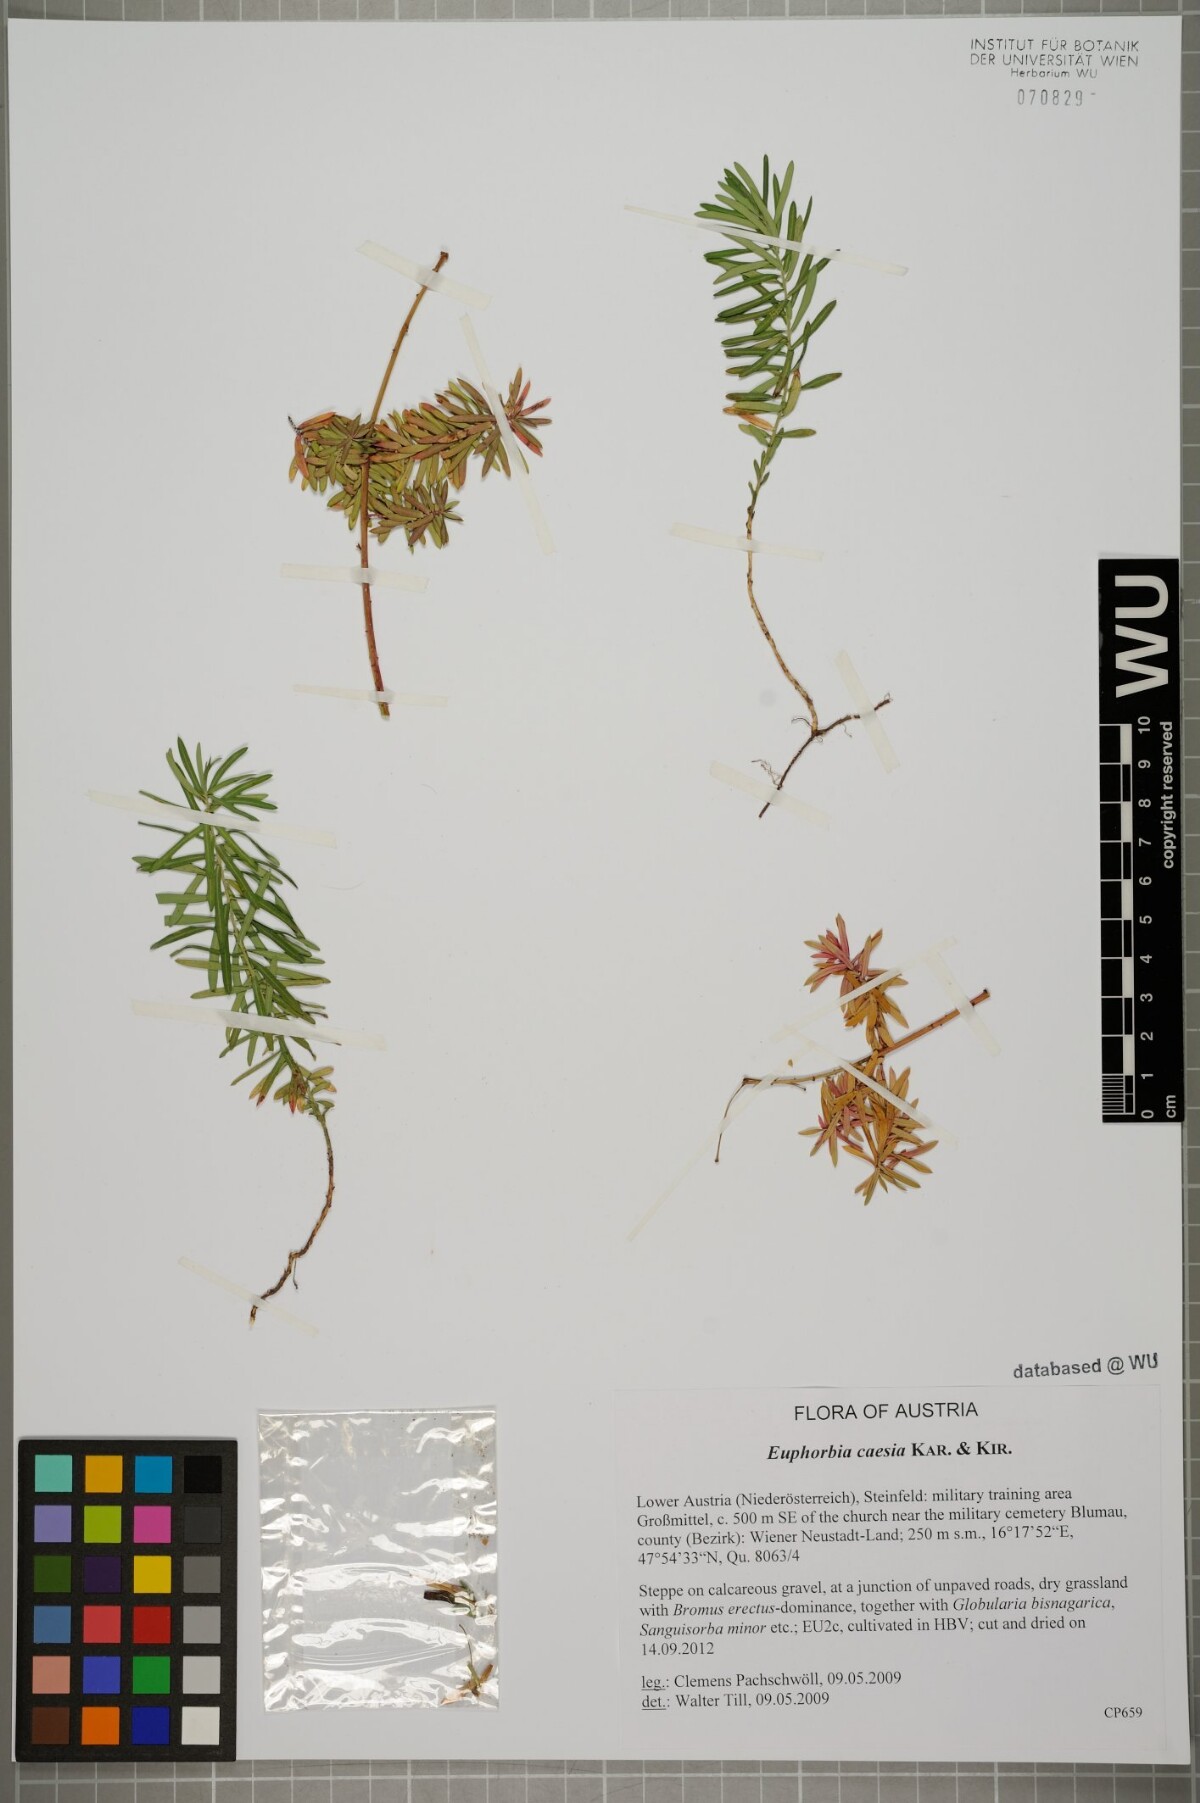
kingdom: Plantae
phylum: Tracheophyta
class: Magnoliopsida
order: Malpighiales
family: Euphorbiaceae
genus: Euphorbia
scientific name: Euphorbia caesia
